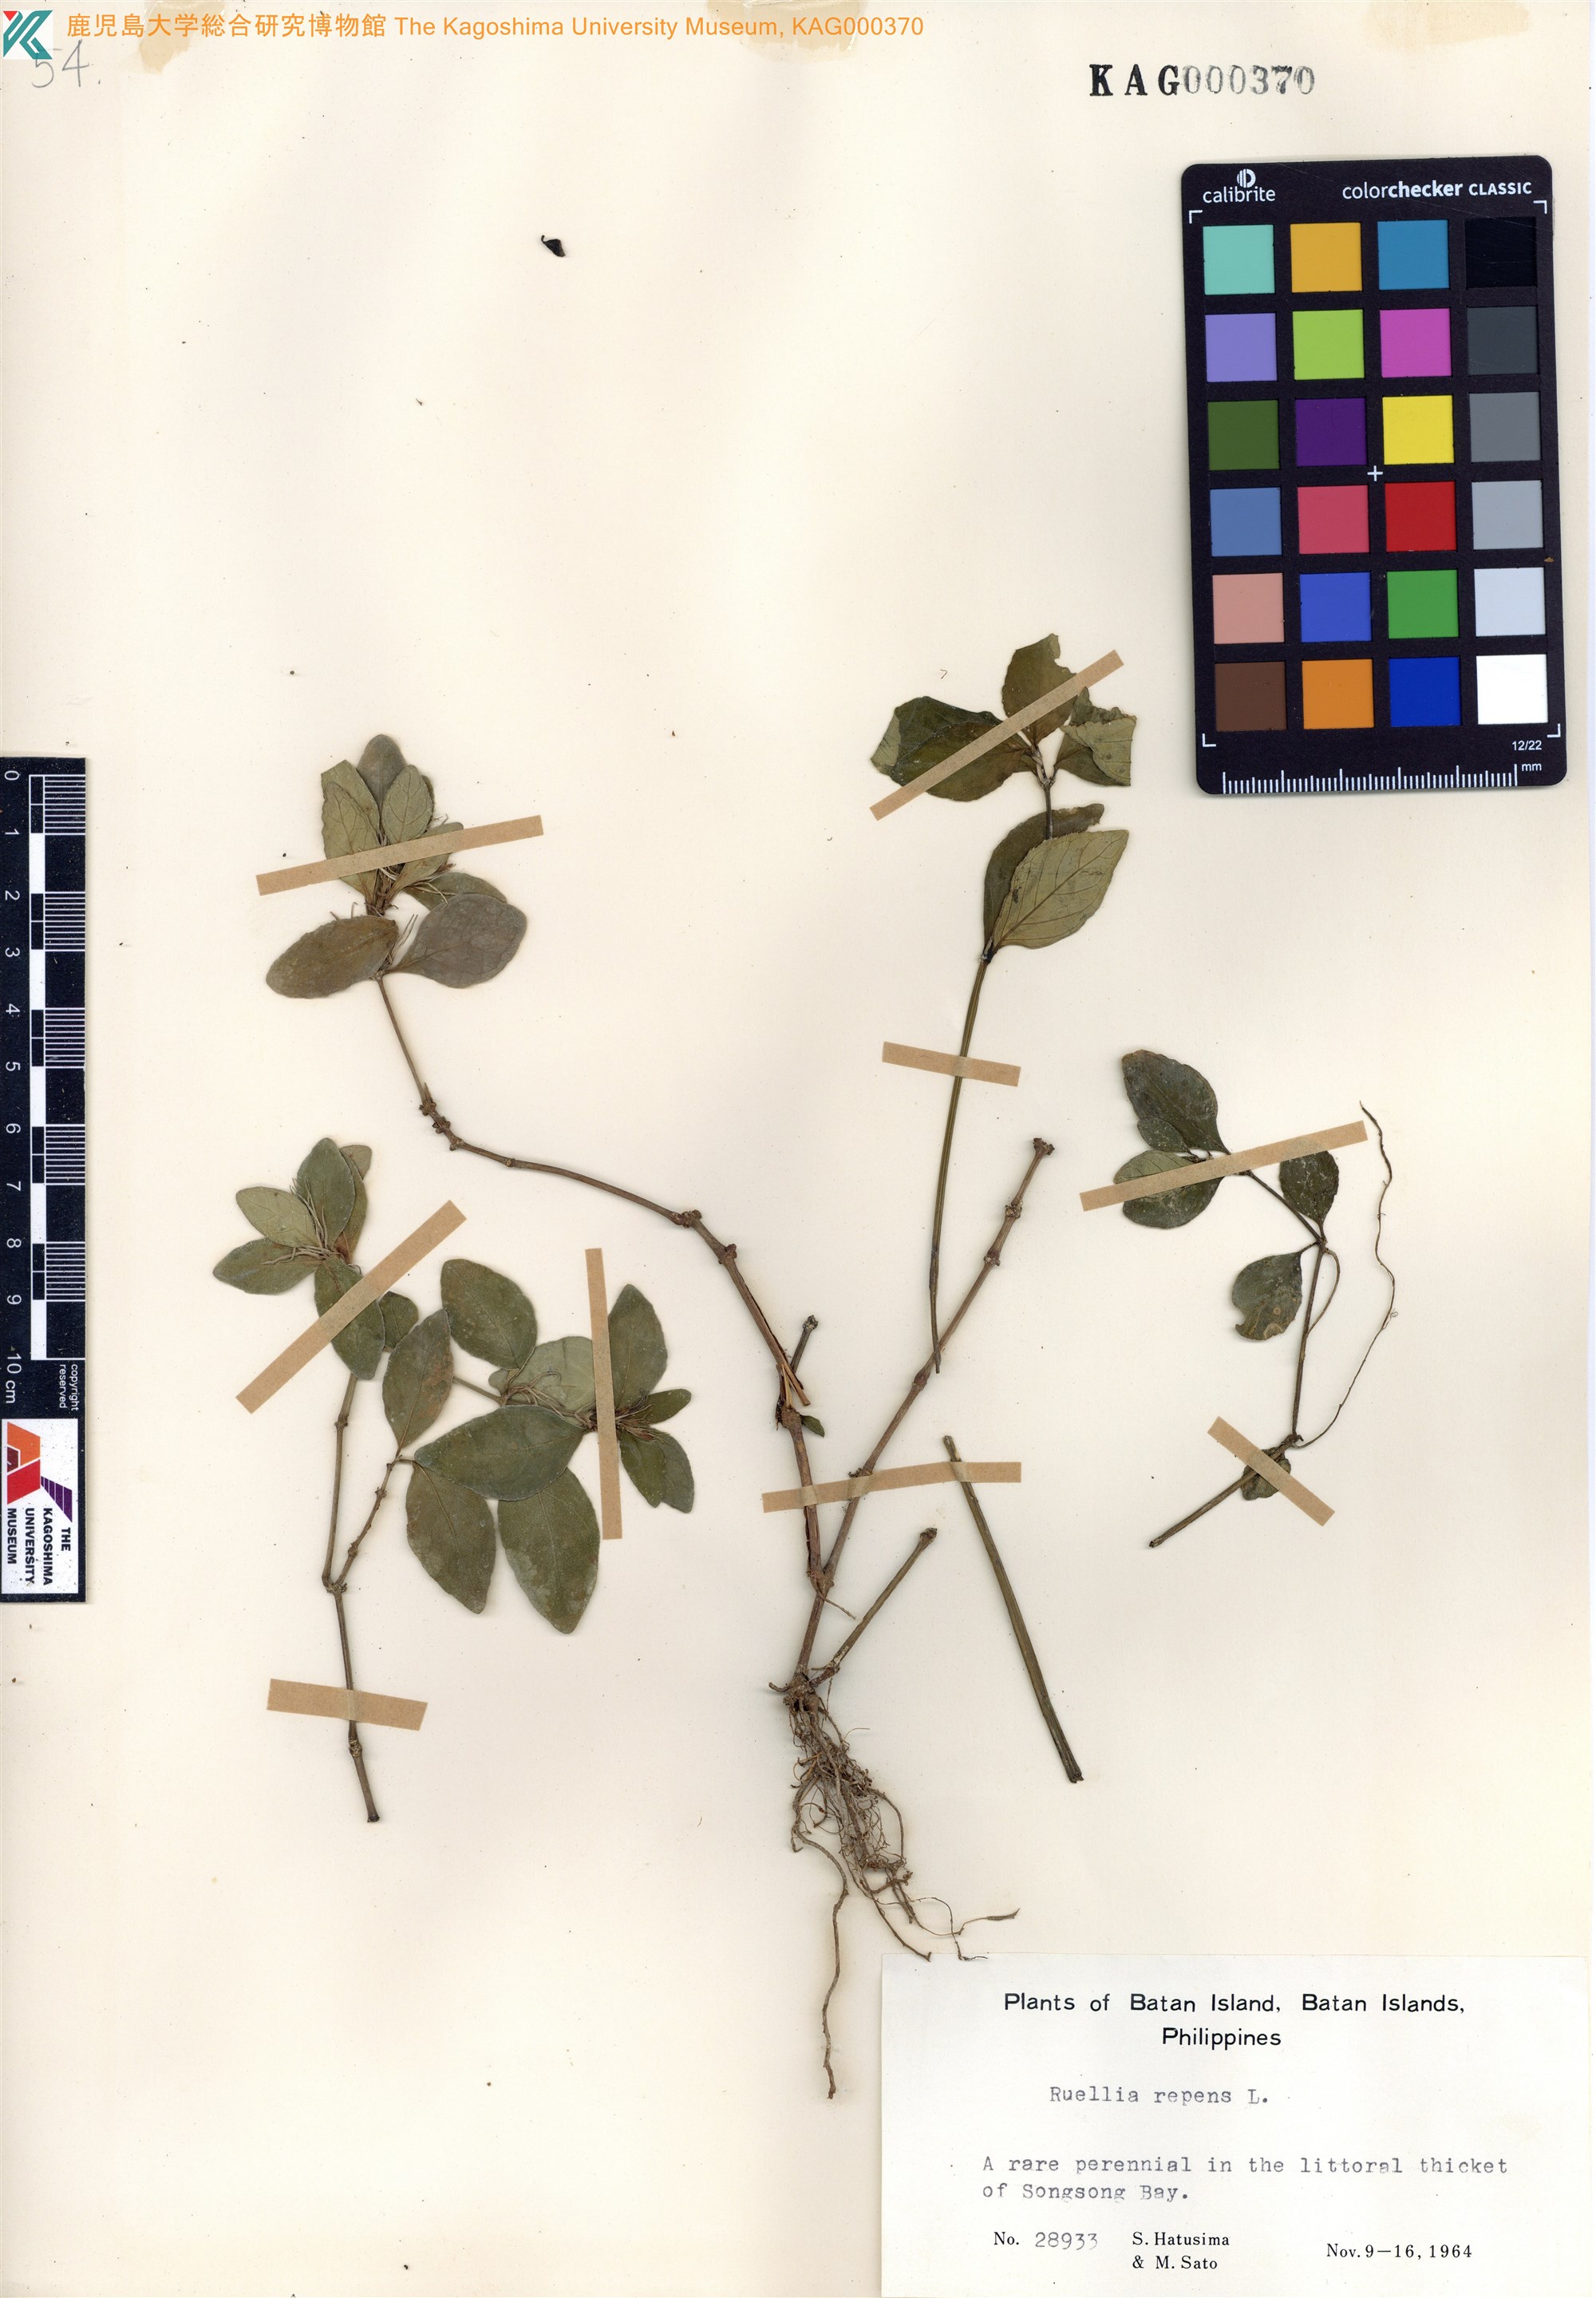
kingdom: Plantae
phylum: Tracheophyta
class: Magnoliopsida
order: Lamiales
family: Acanthaceae
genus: Ruellia
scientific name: Ruellia repens
